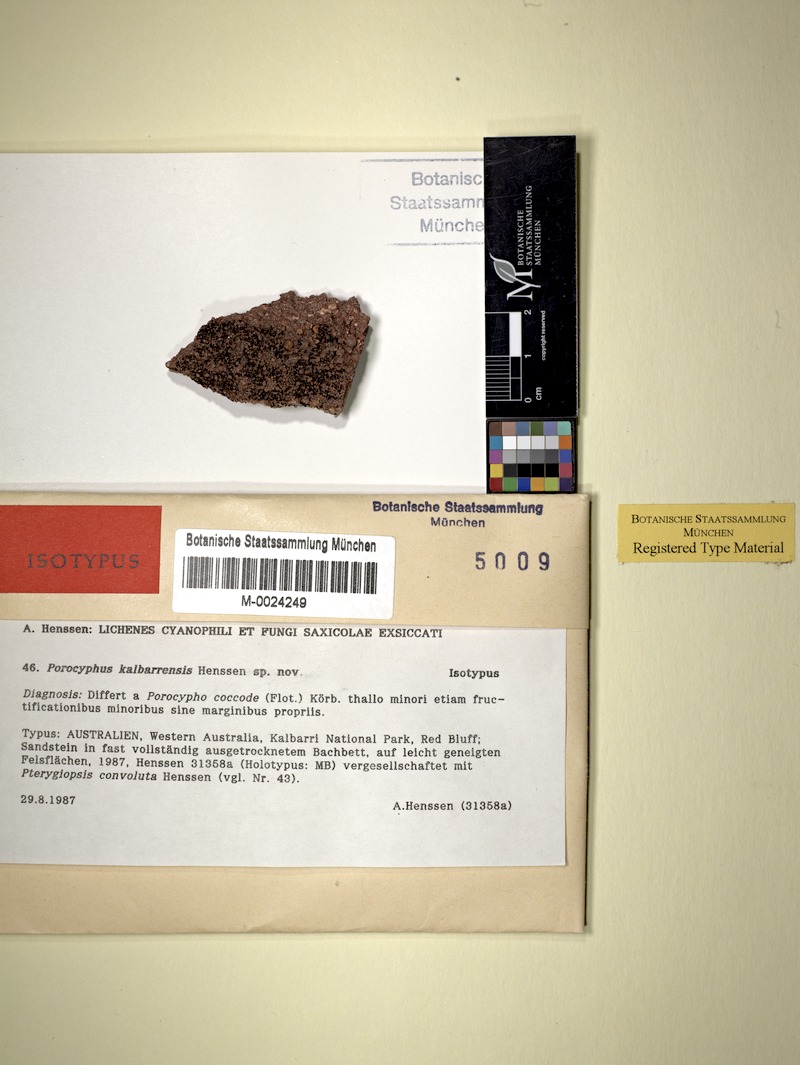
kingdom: Fungi
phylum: Ascomycota
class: Lichinomycetes
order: Lichinales
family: Lichinaceae
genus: Porocyphus
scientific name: Porocyphus kalbarrensis
